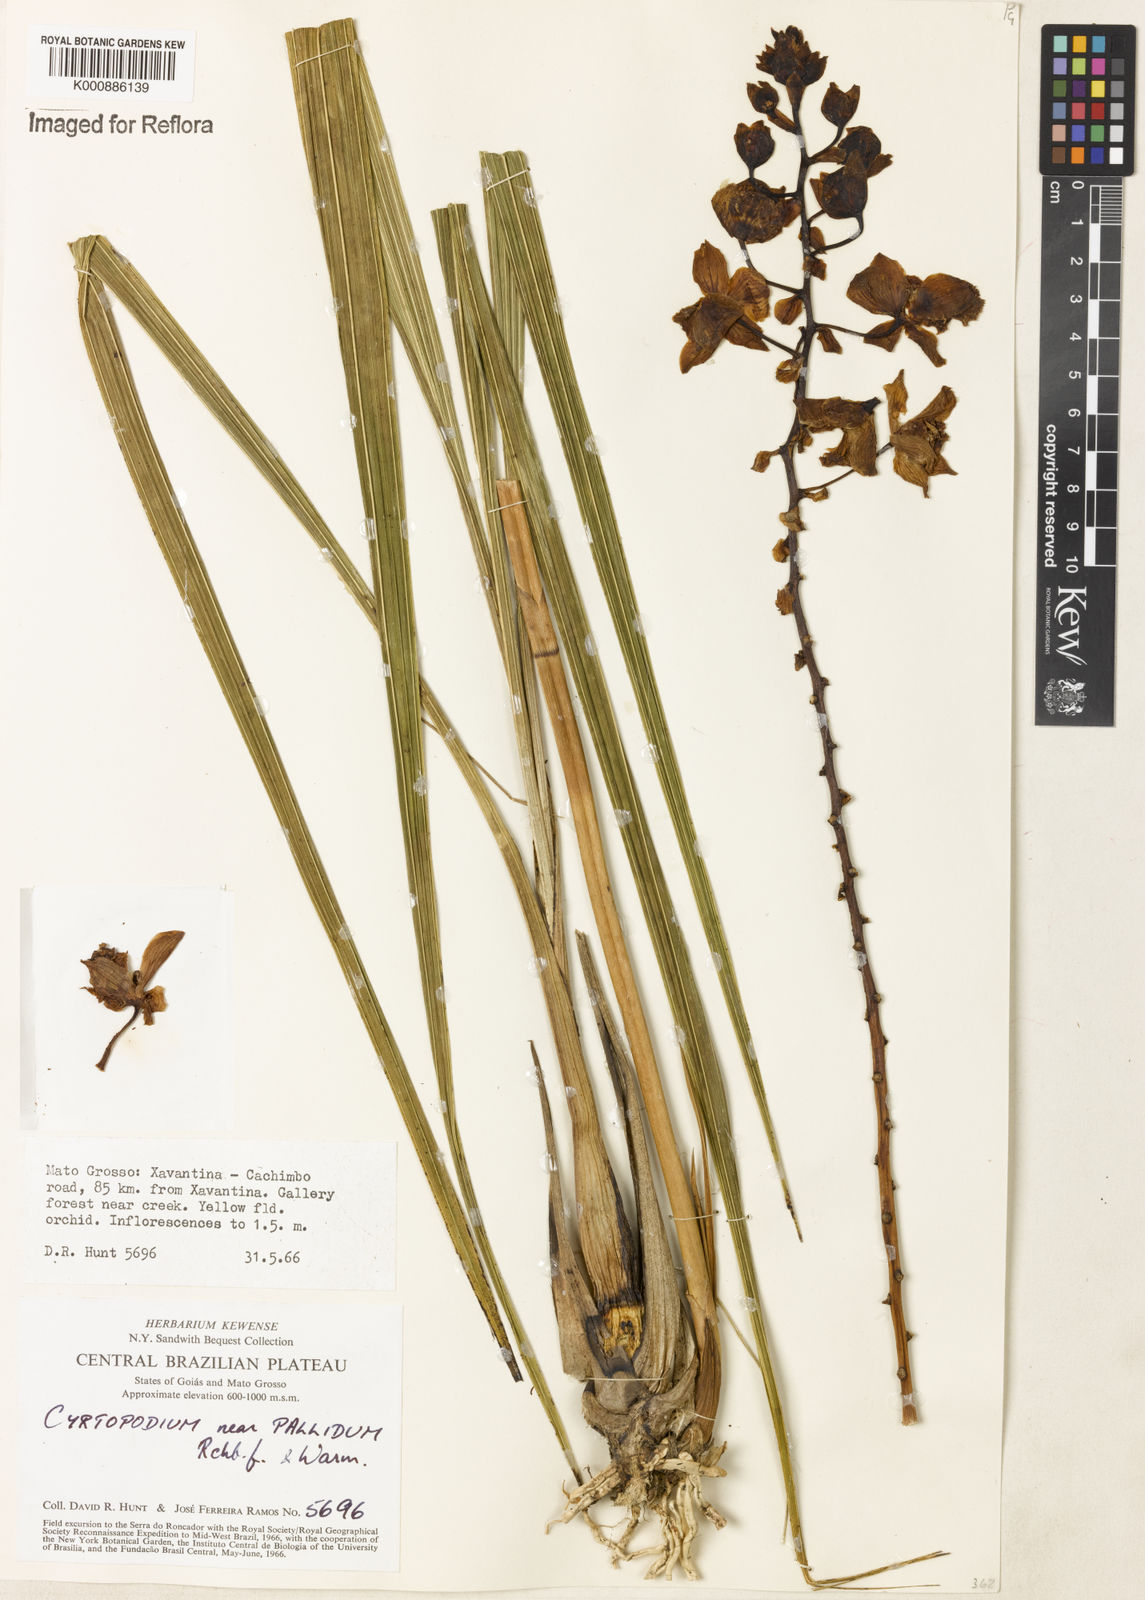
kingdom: Plantae
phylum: Tracheophyta
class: Liliopsida
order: Asparagales
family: Orchidaceae
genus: Cyrtopodium
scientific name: Cyrtopodium pallidum
